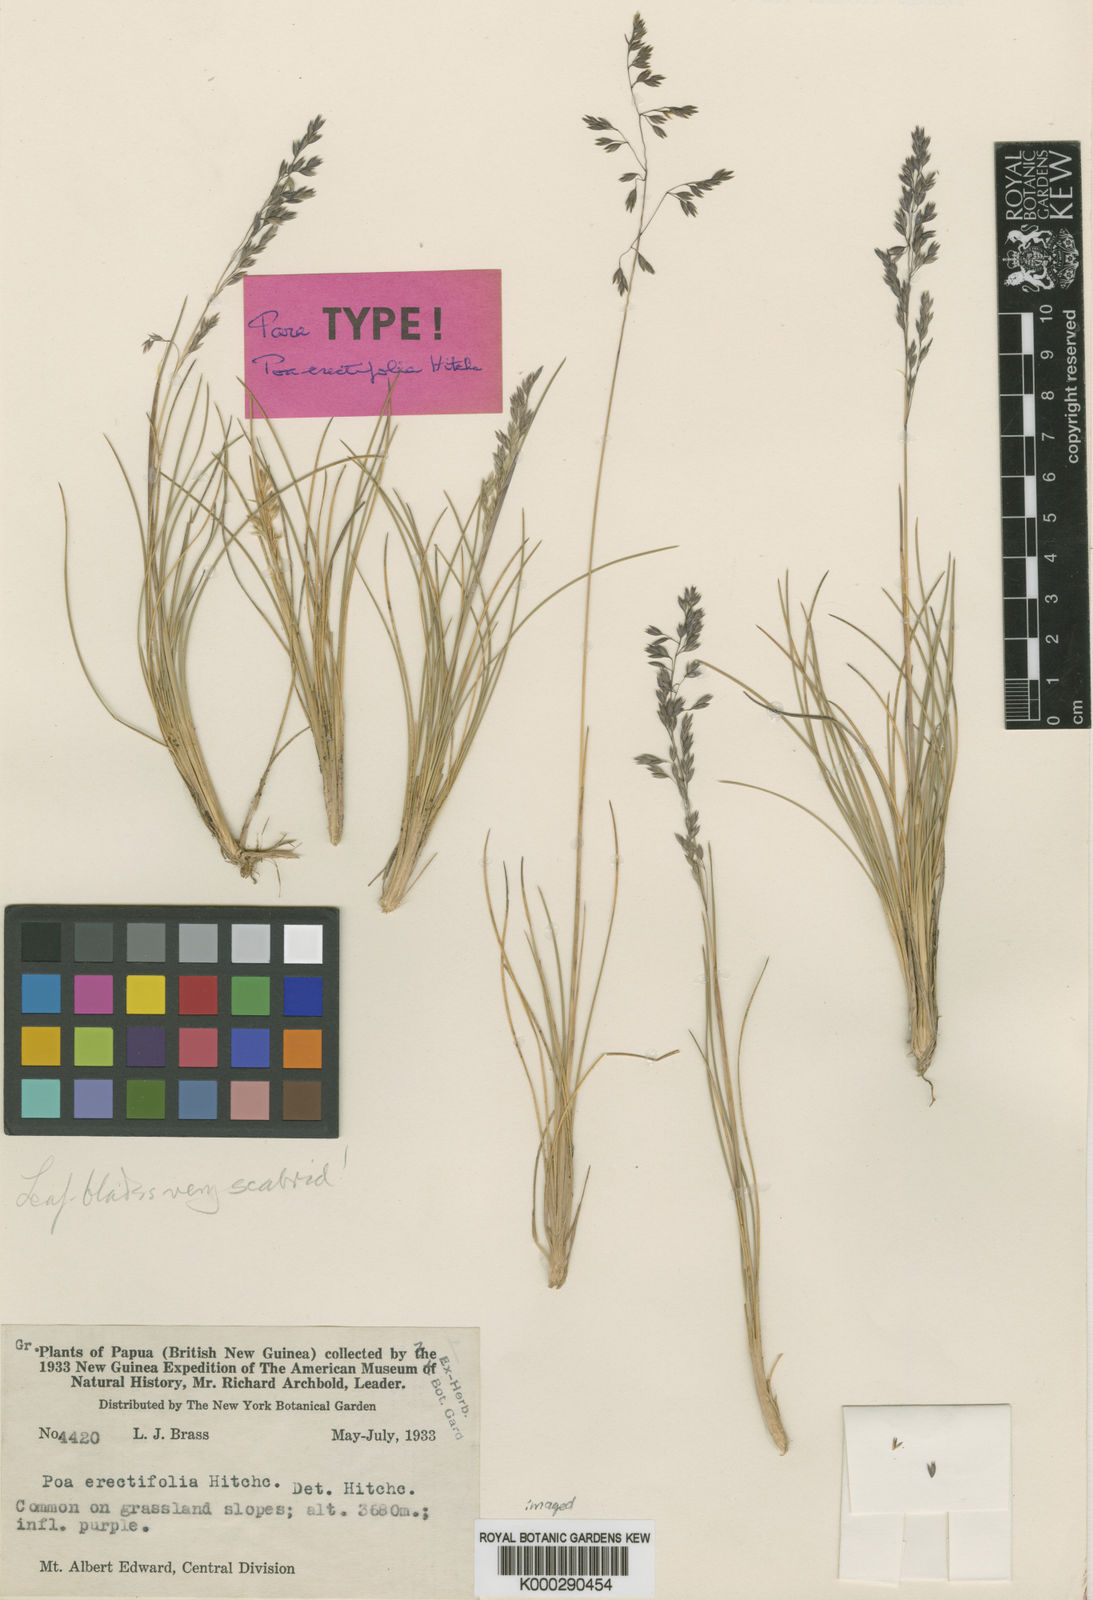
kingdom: Plantae
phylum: Tracheophyta
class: Liliopsida
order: Poales
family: Poaceae
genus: Poa
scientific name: Poa erectifolia
